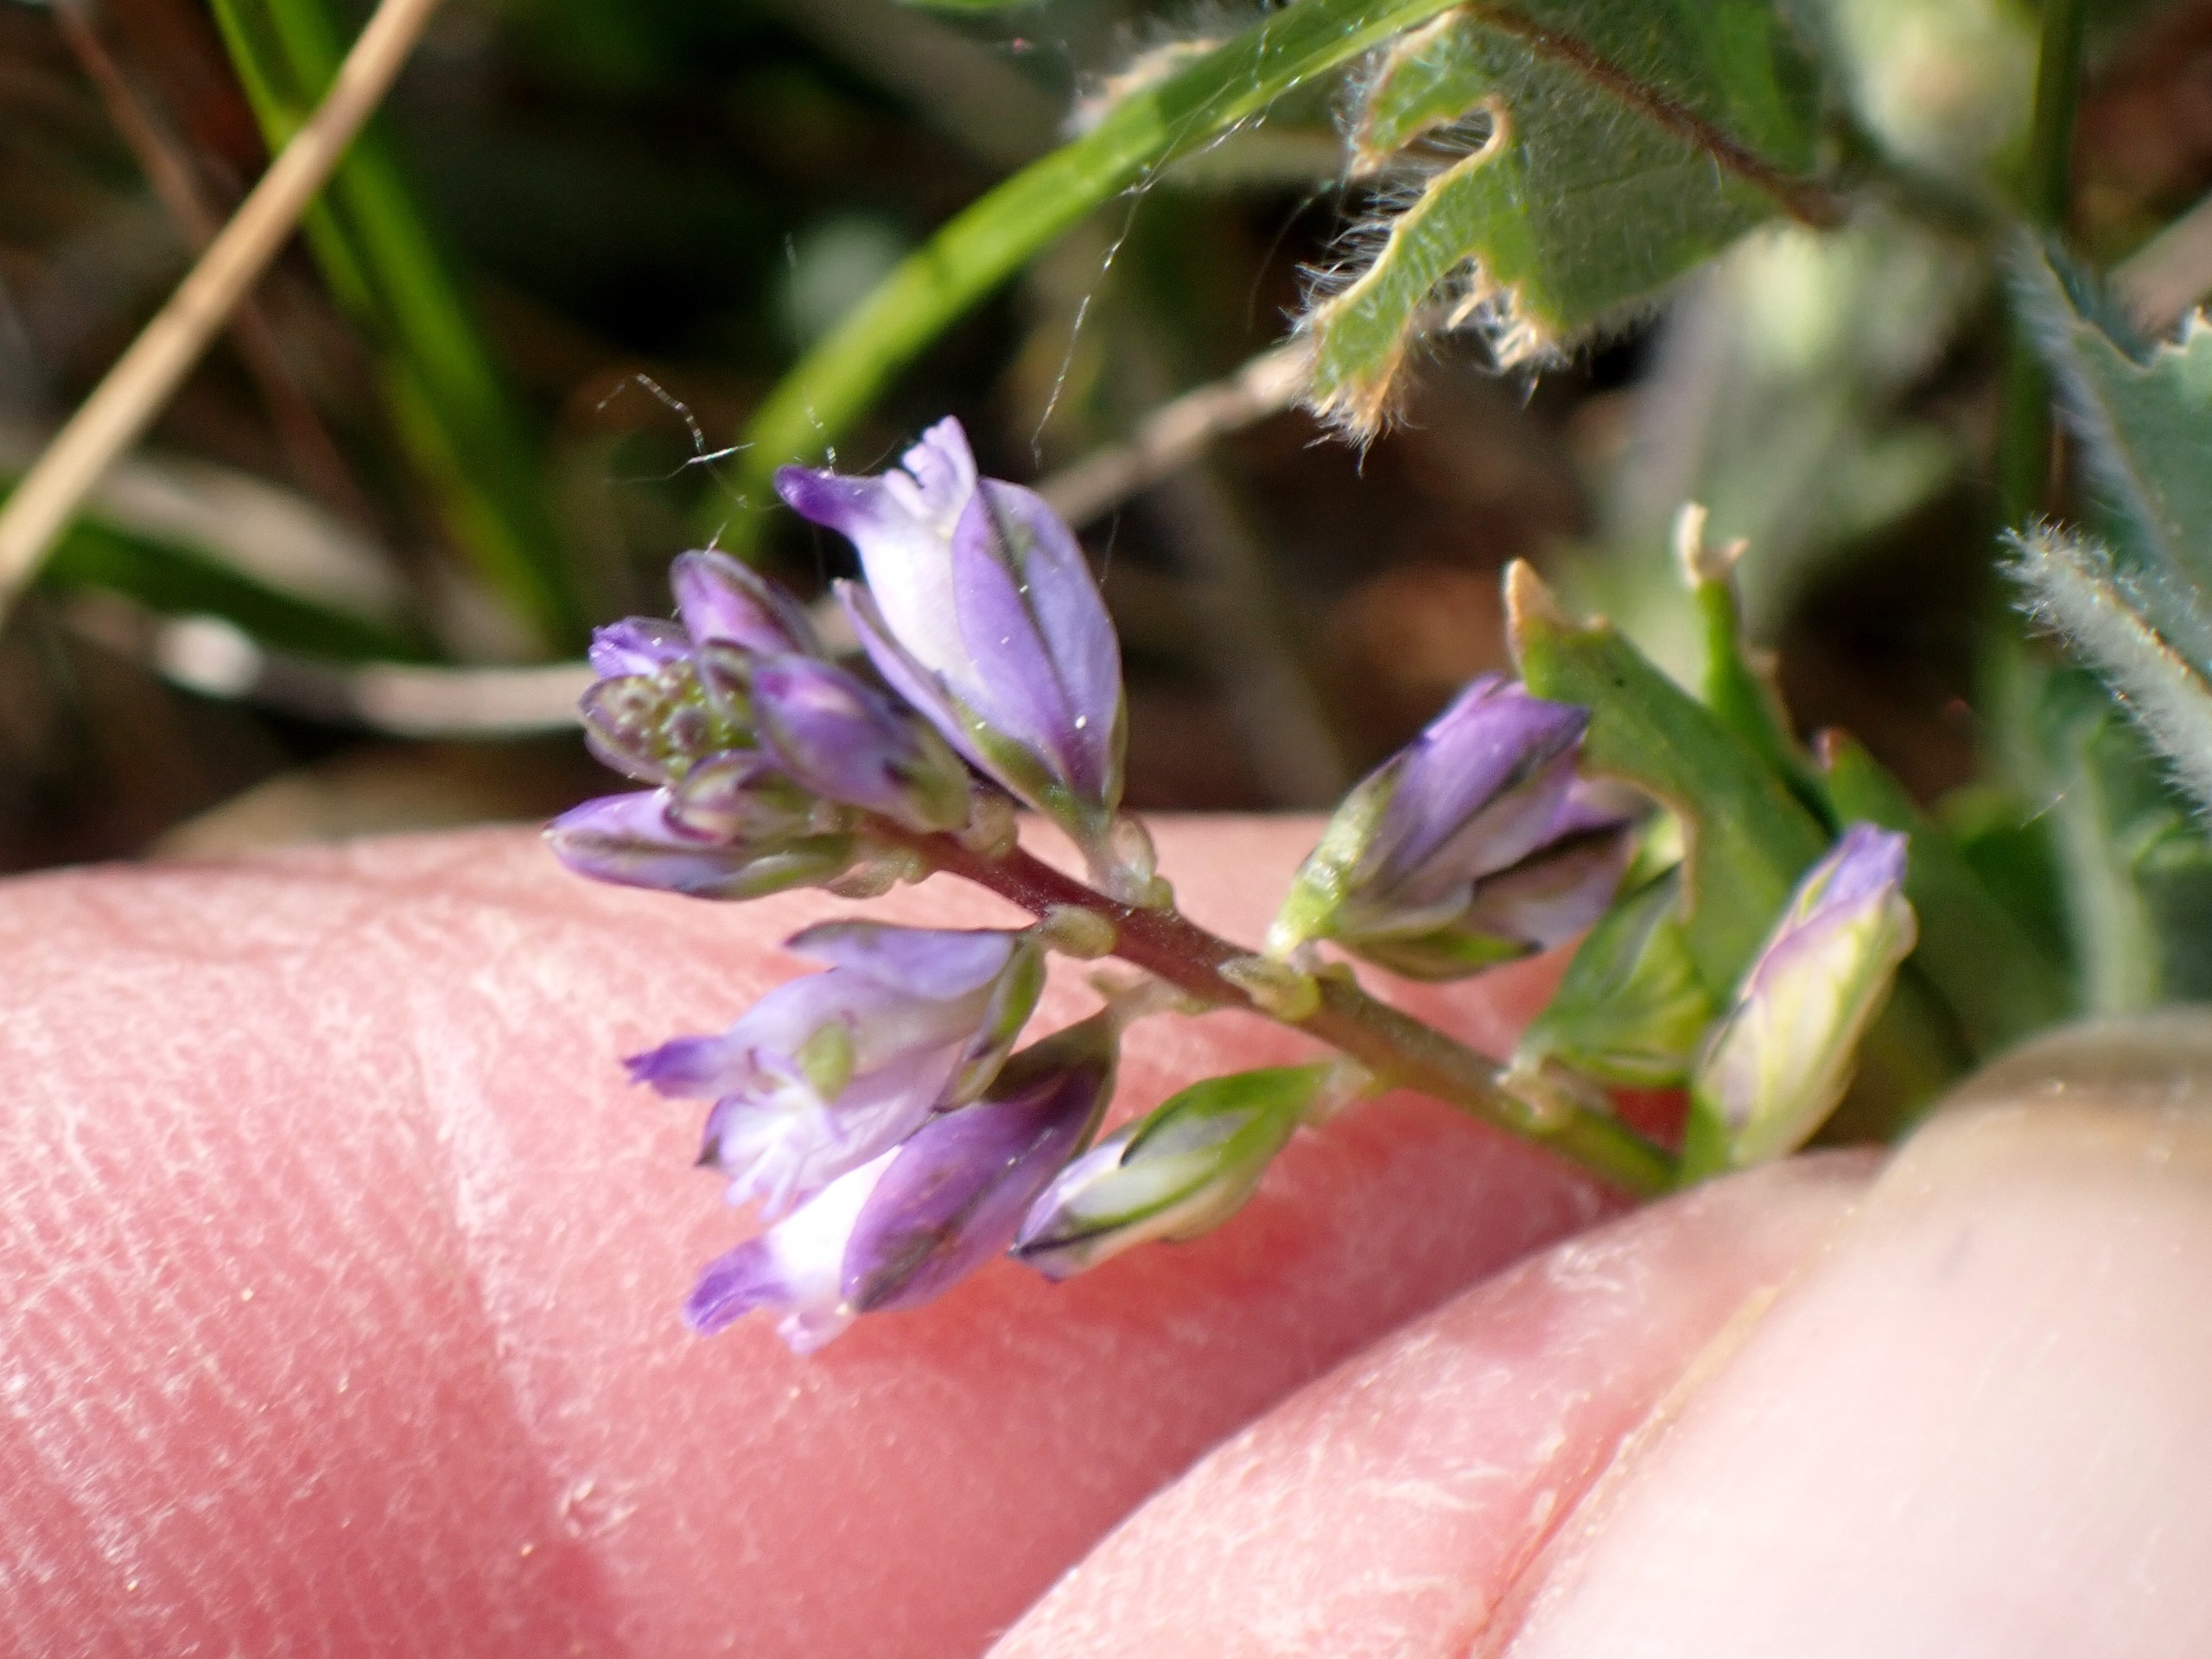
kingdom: Plantae
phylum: Tracheophyta
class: Magnoliopsida
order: Fabales
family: Polygalaceae
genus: Polygala
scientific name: Polygala vulgaris
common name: Almindelig mælkeurt
